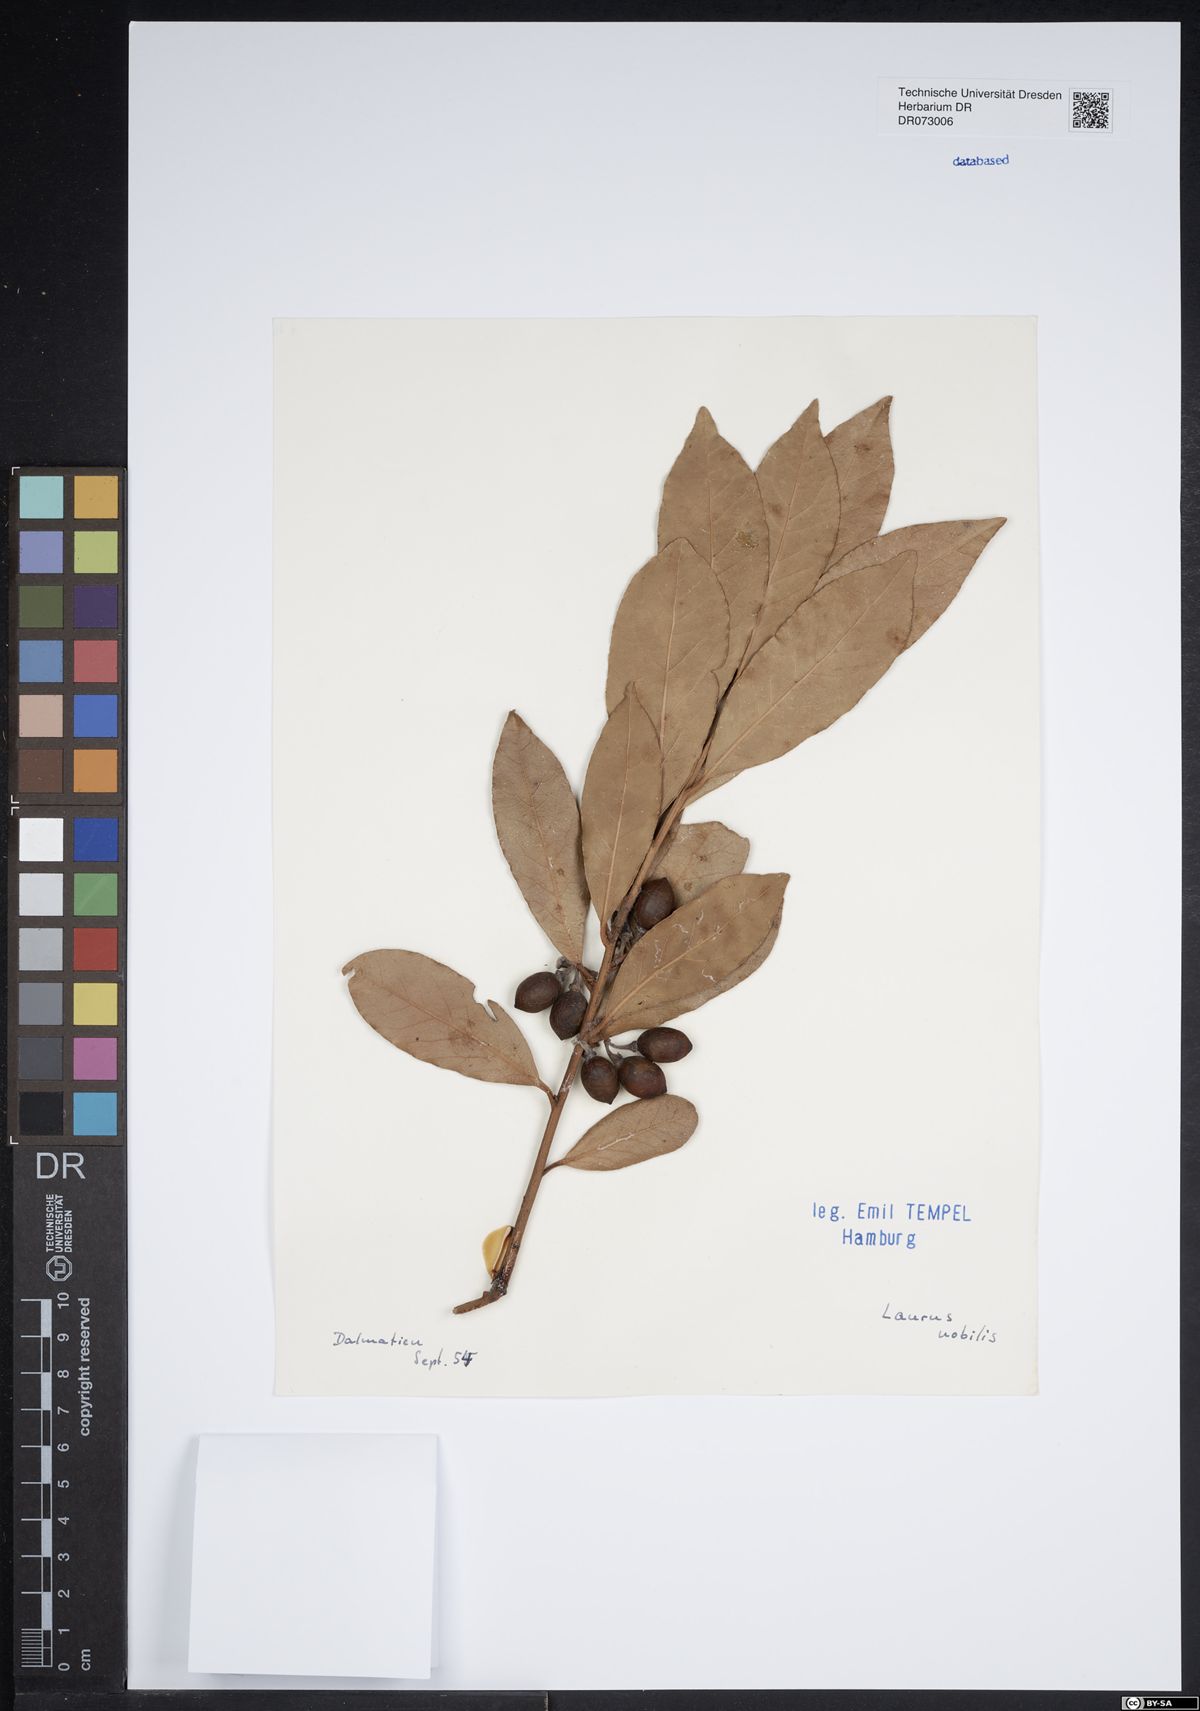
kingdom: Plantae
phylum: Tracheophyta
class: Magnoliopsida
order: Laurales
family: Lauraceae
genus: Laurus
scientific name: Laurus nobilis
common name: Bay
